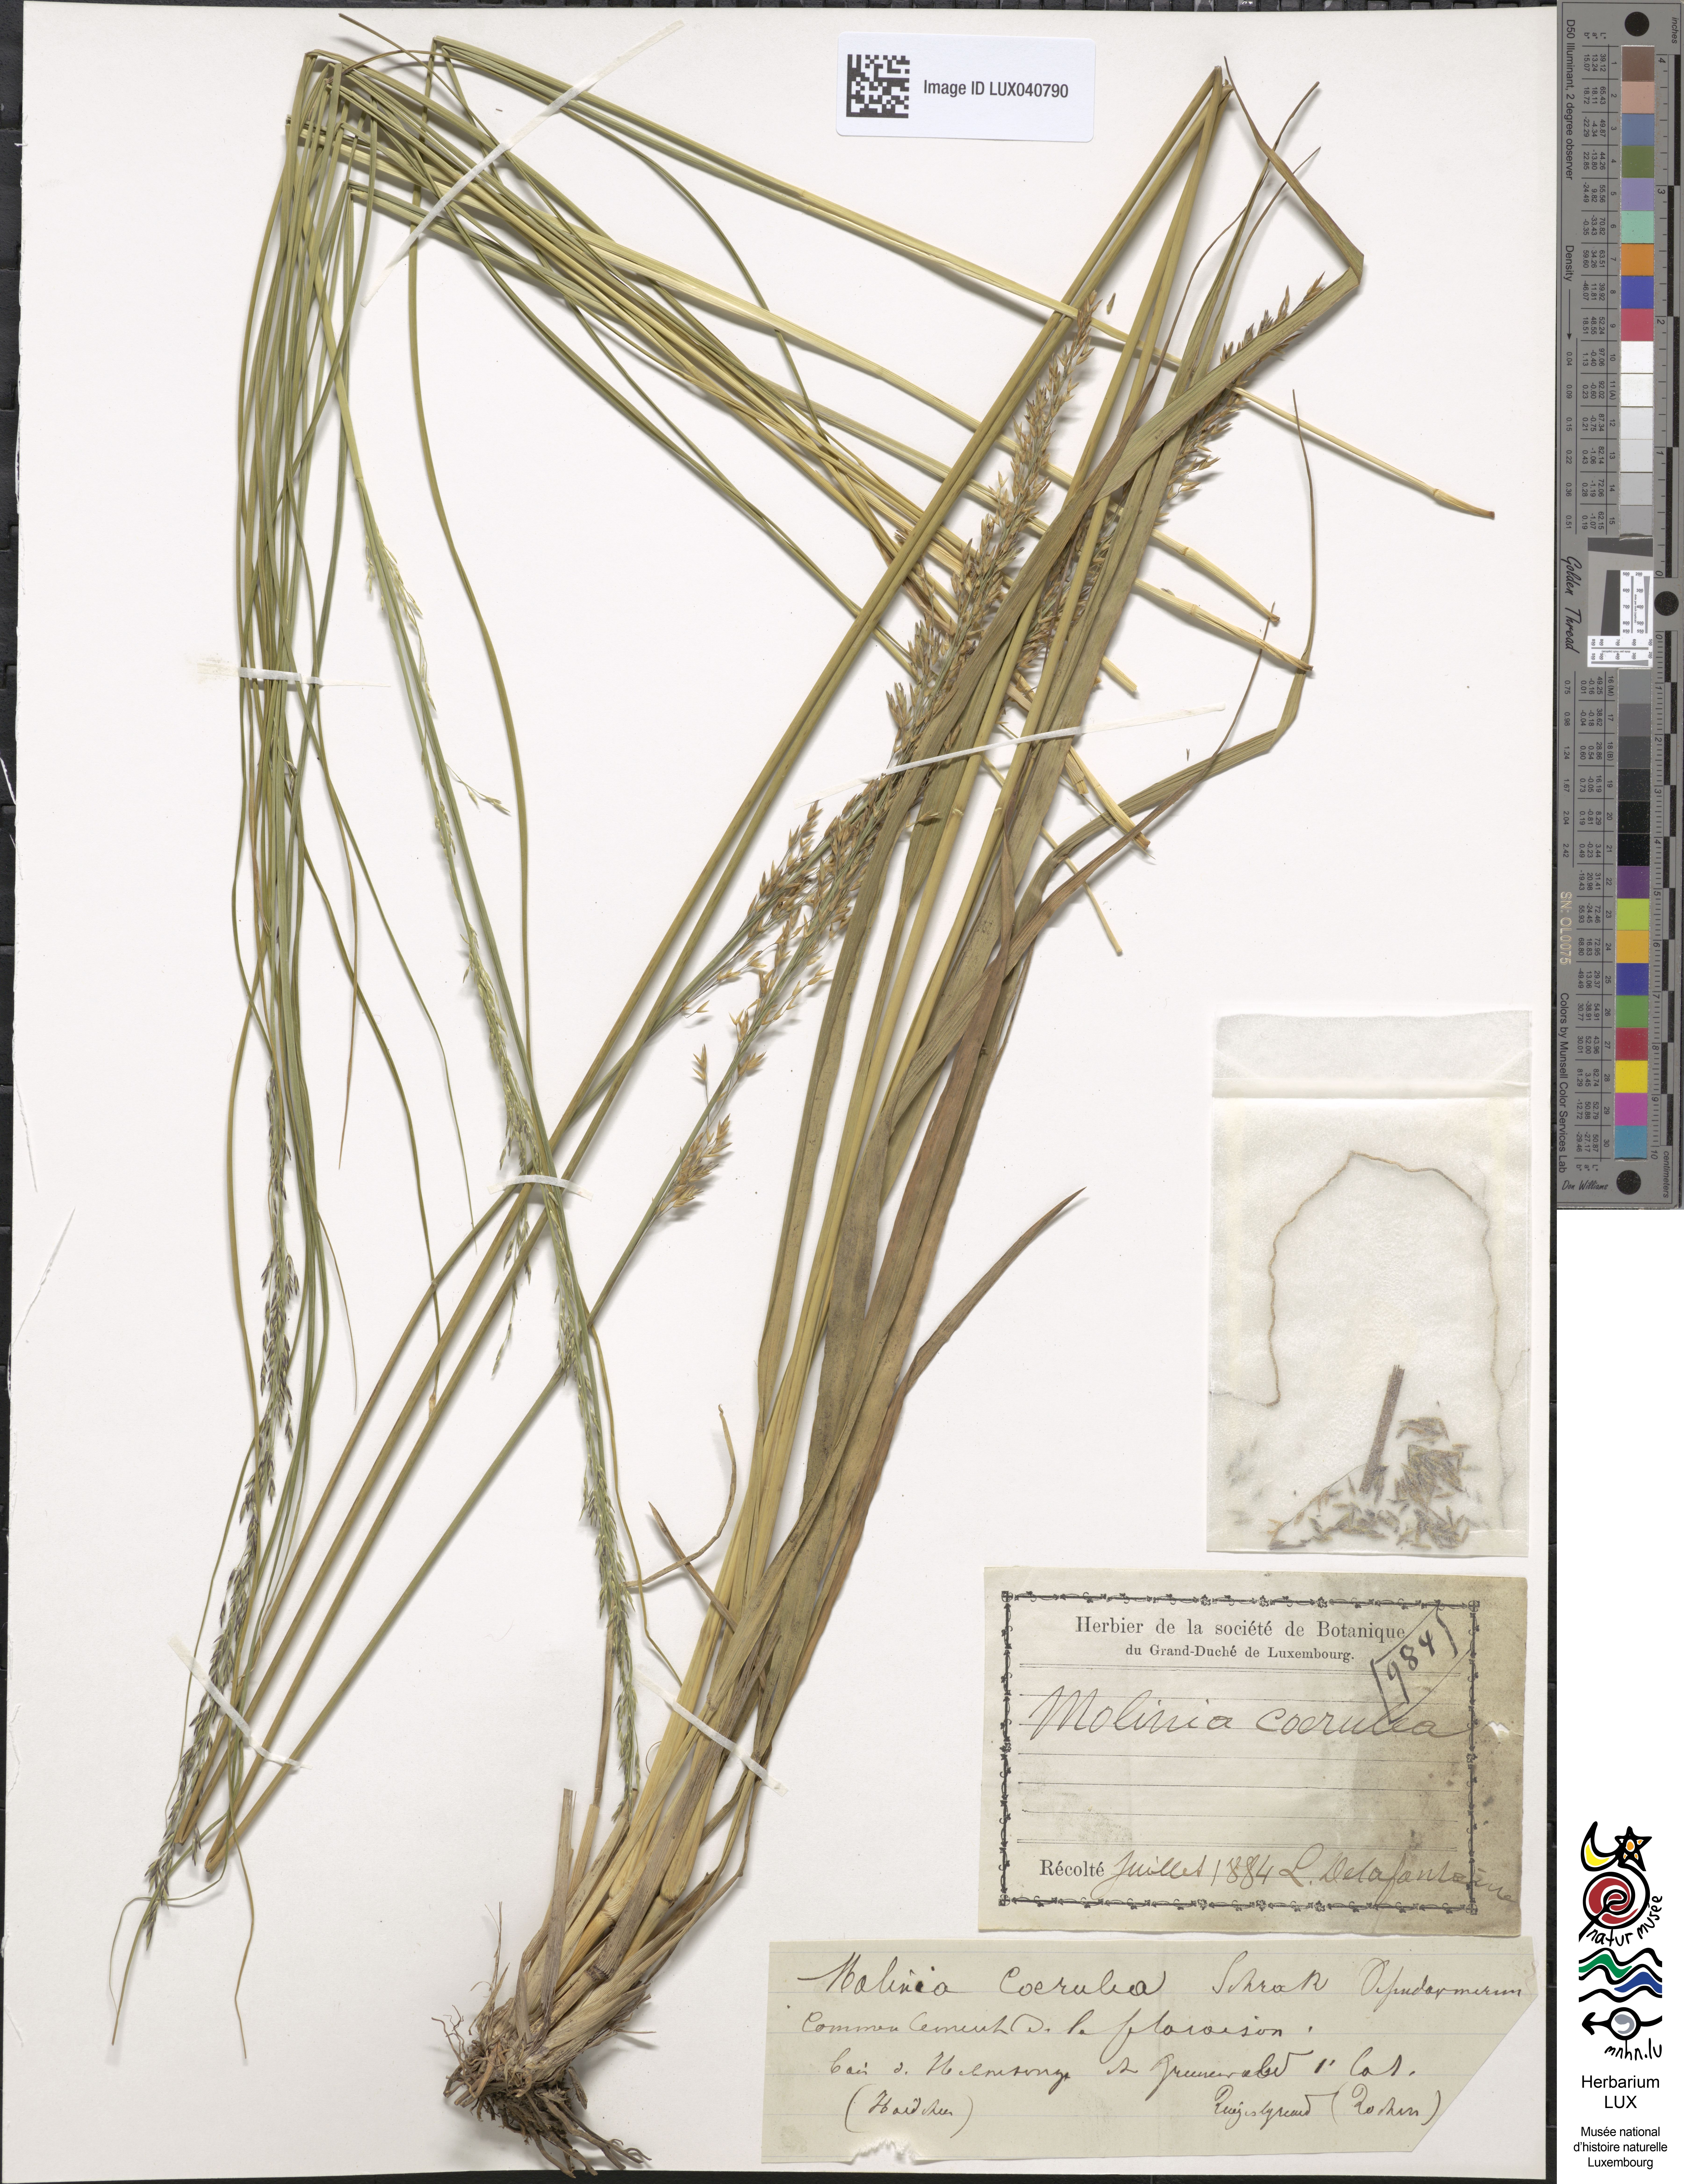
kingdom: Plantae
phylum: Tracheophyta
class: Liliopsida
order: Poales
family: Poaceae
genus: Molinia
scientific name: Molinia caerulea
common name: Purple moor-grass
